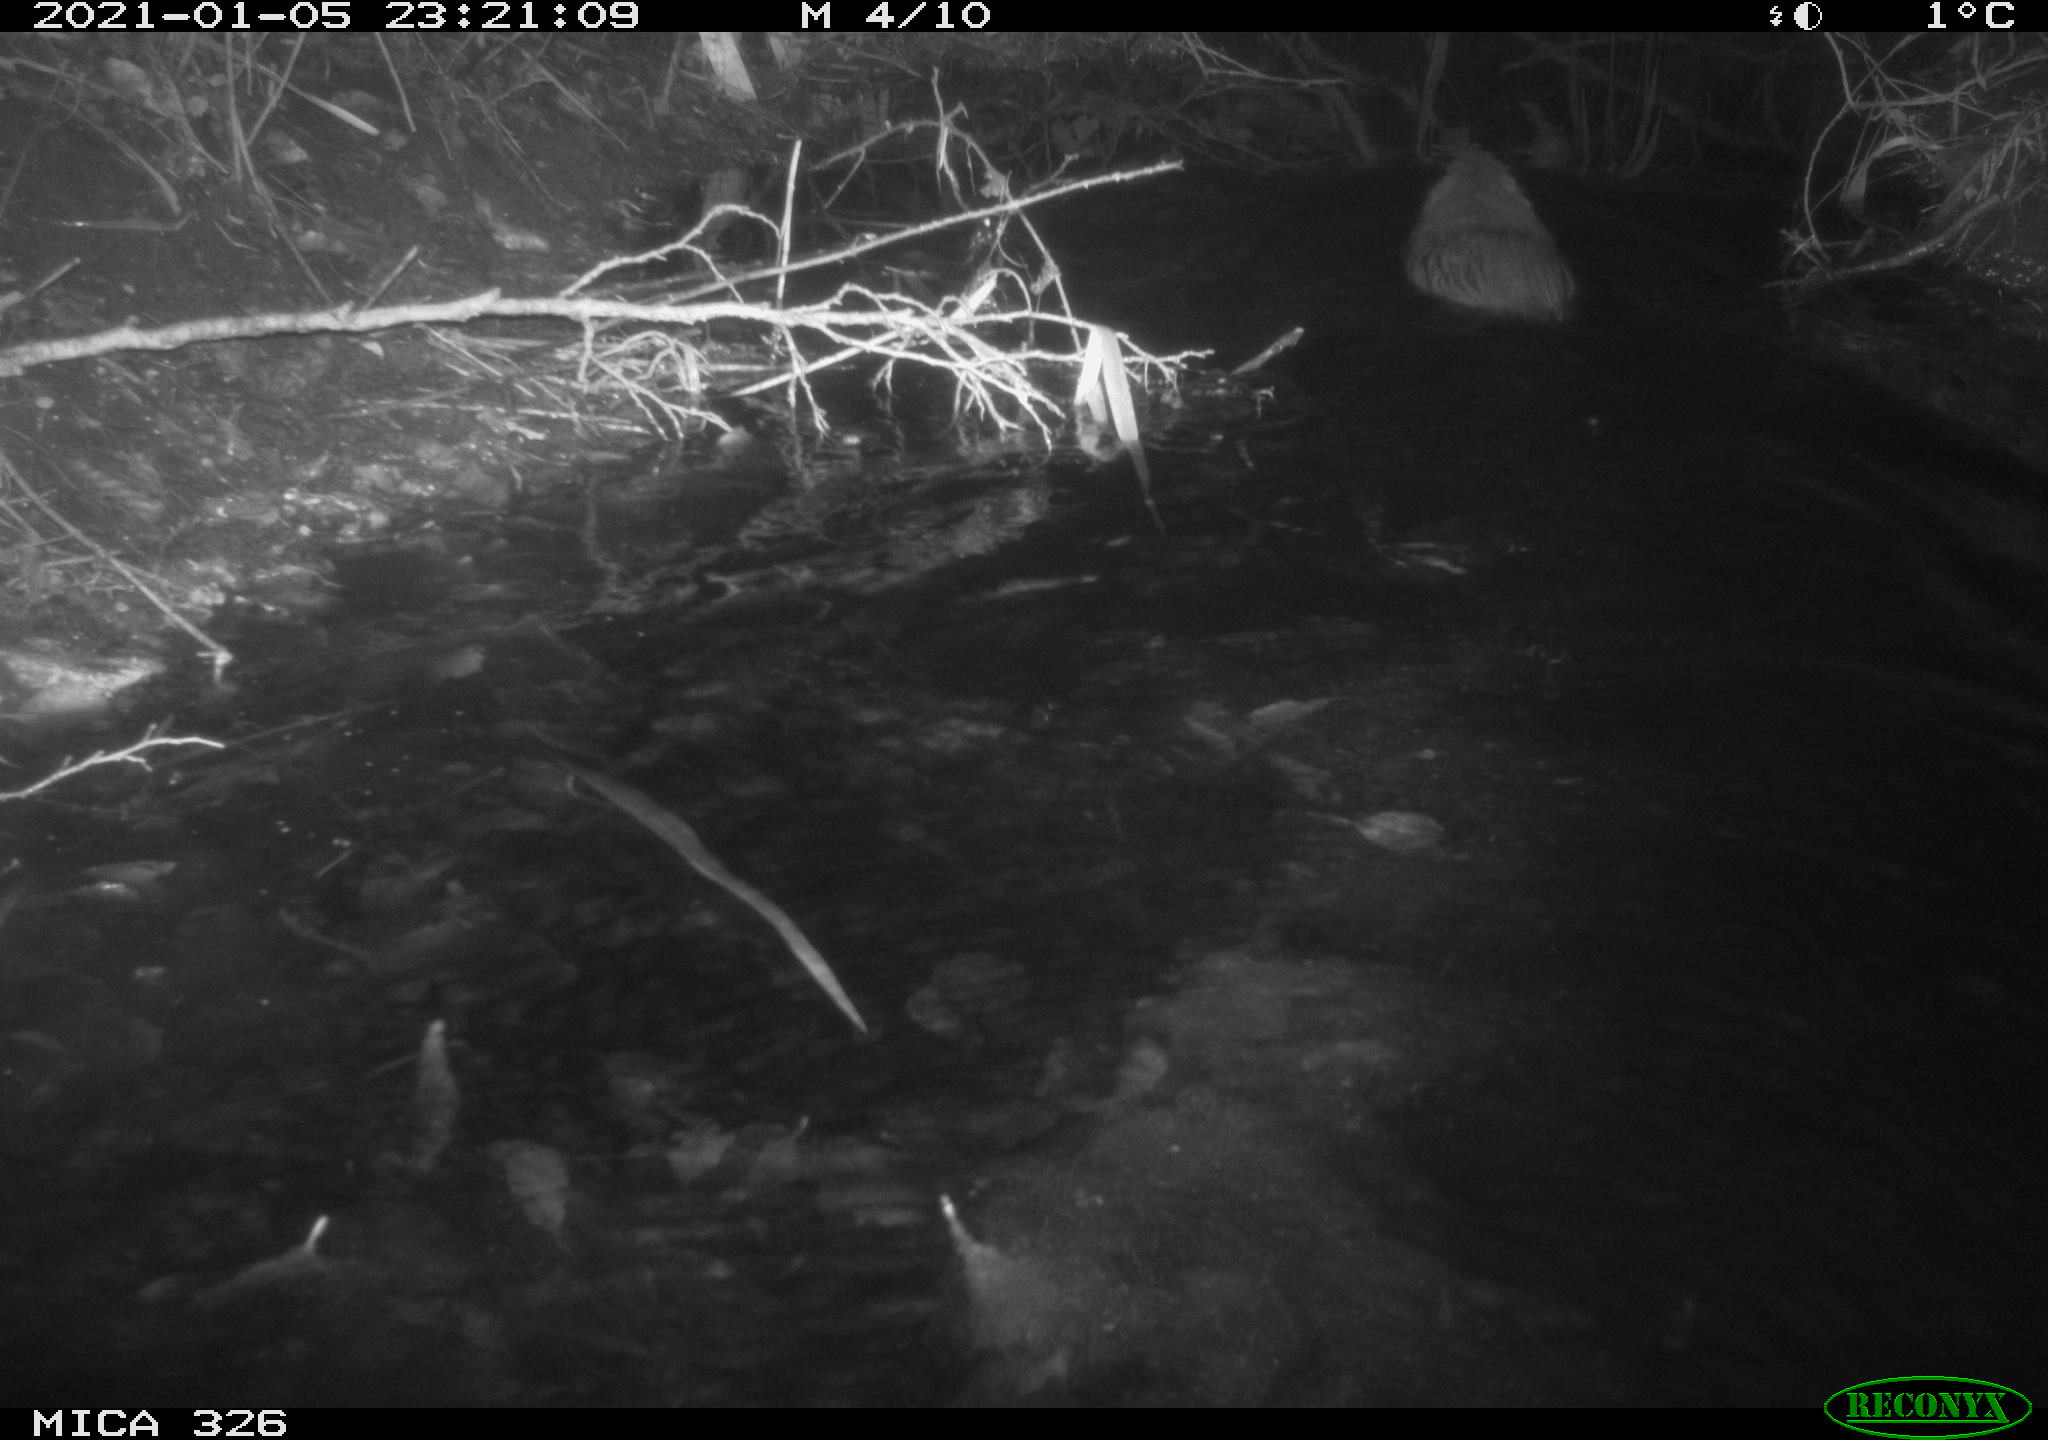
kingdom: Animalia
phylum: Chordata
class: Mammalia
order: Rodentia
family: Myocastoridae
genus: Myocastor
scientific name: Myocastor coypus
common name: Coypu
